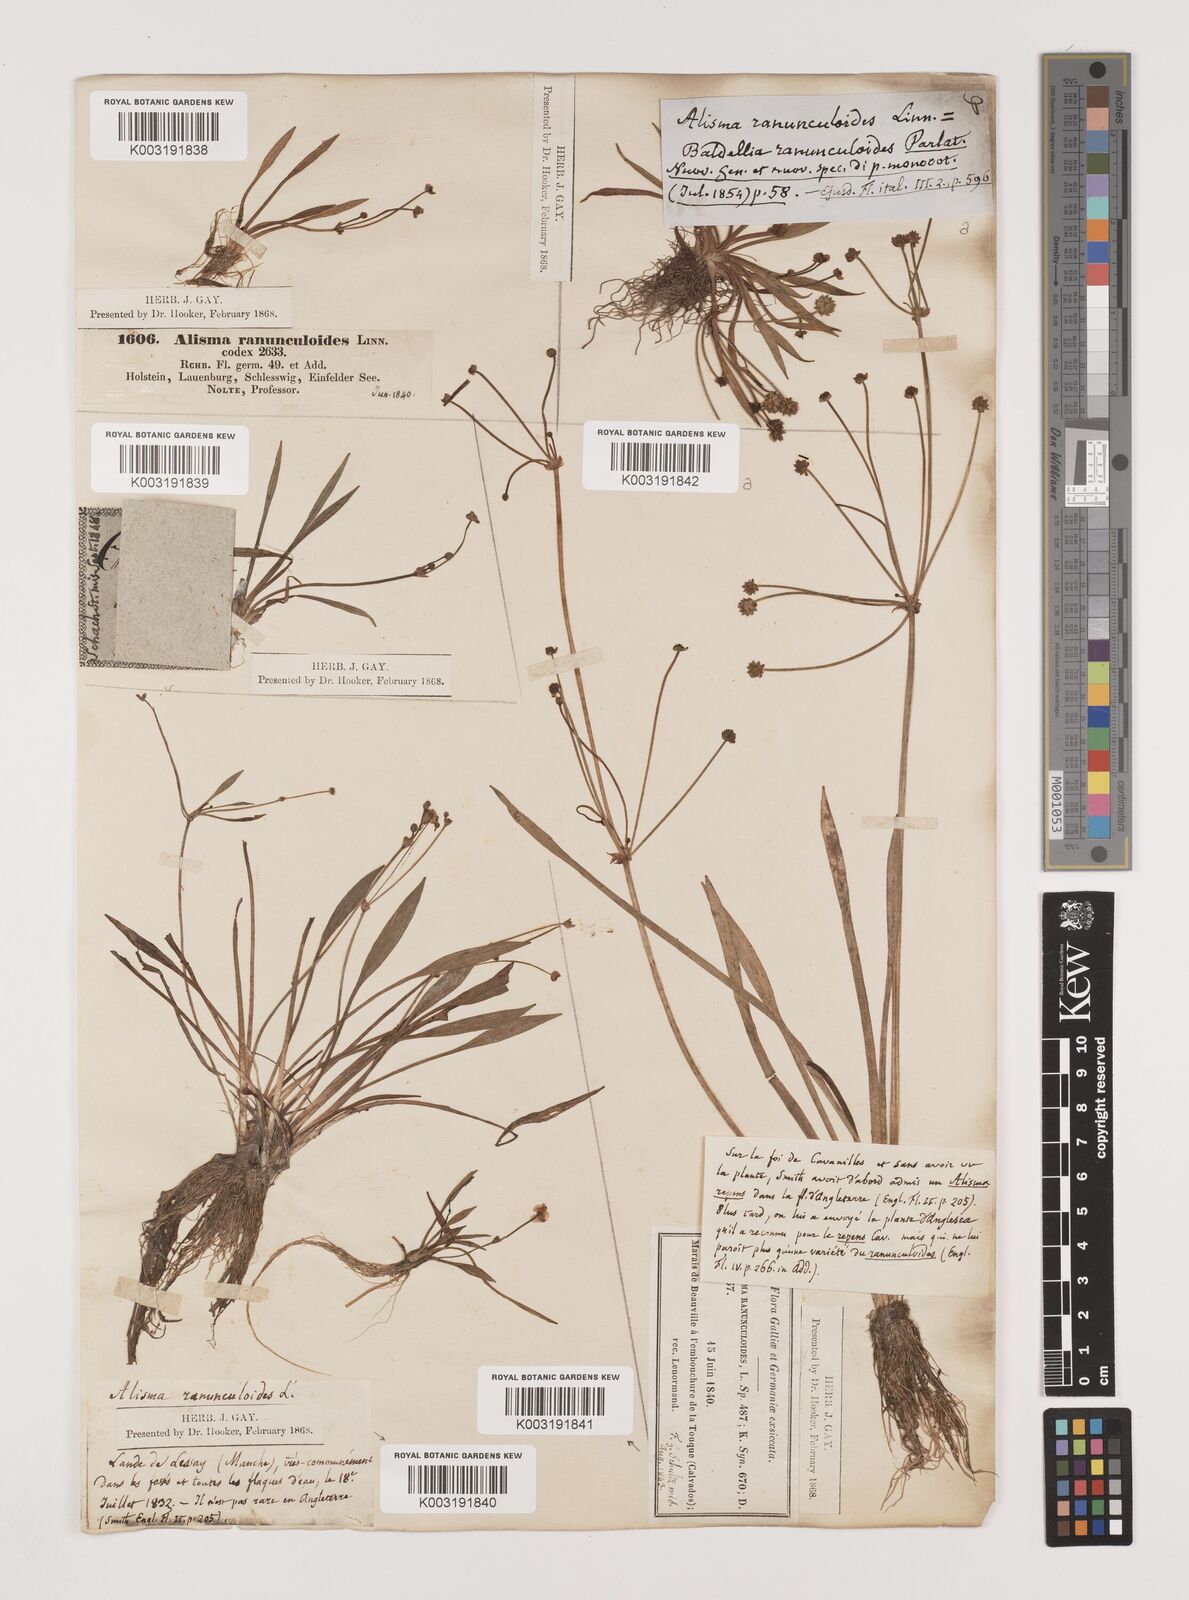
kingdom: Plantae
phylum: Tracheophyta
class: Liliopsida
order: Alismatales
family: Alismataceae
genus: Baldellia
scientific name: Baldellia ranunculoides
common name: Lesser water-plantain
